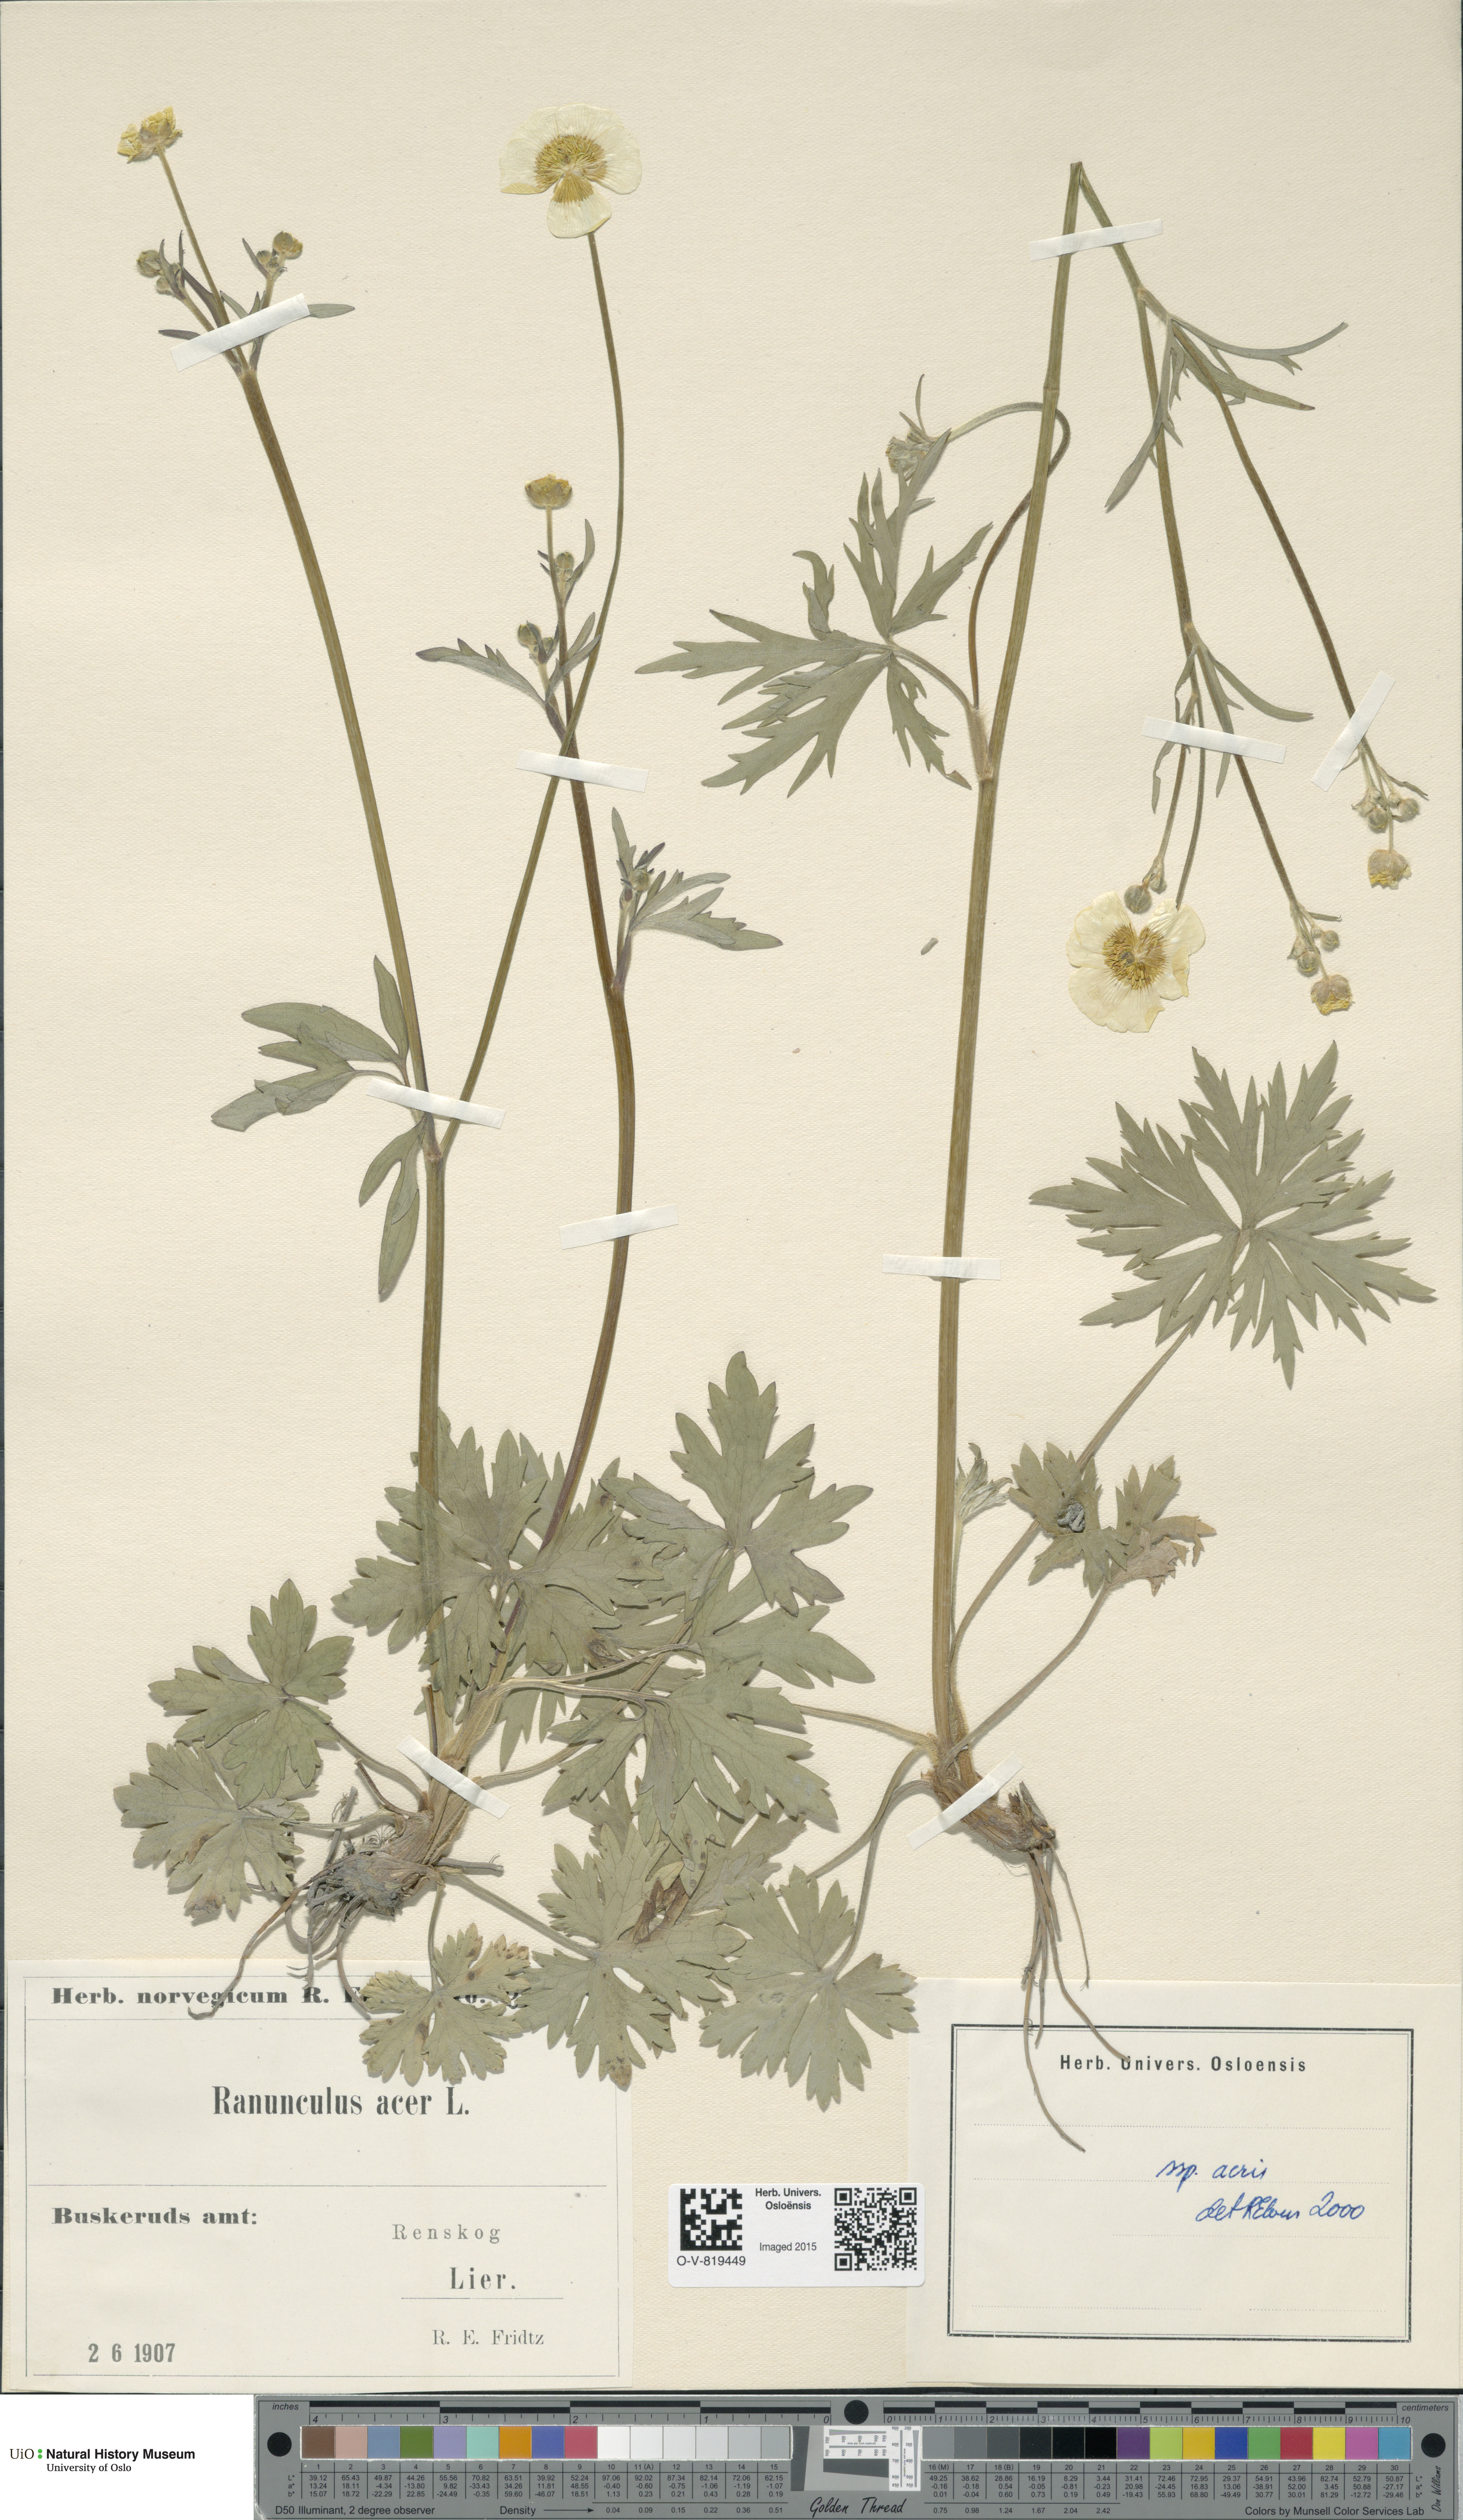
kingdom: Plantae
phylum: Tracheophyta
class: Magnoliopsida
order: Ranunculales
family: Ranunculaceae
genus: Ranunculus
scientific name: Ranunculus acris
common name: Meadow buttercup
